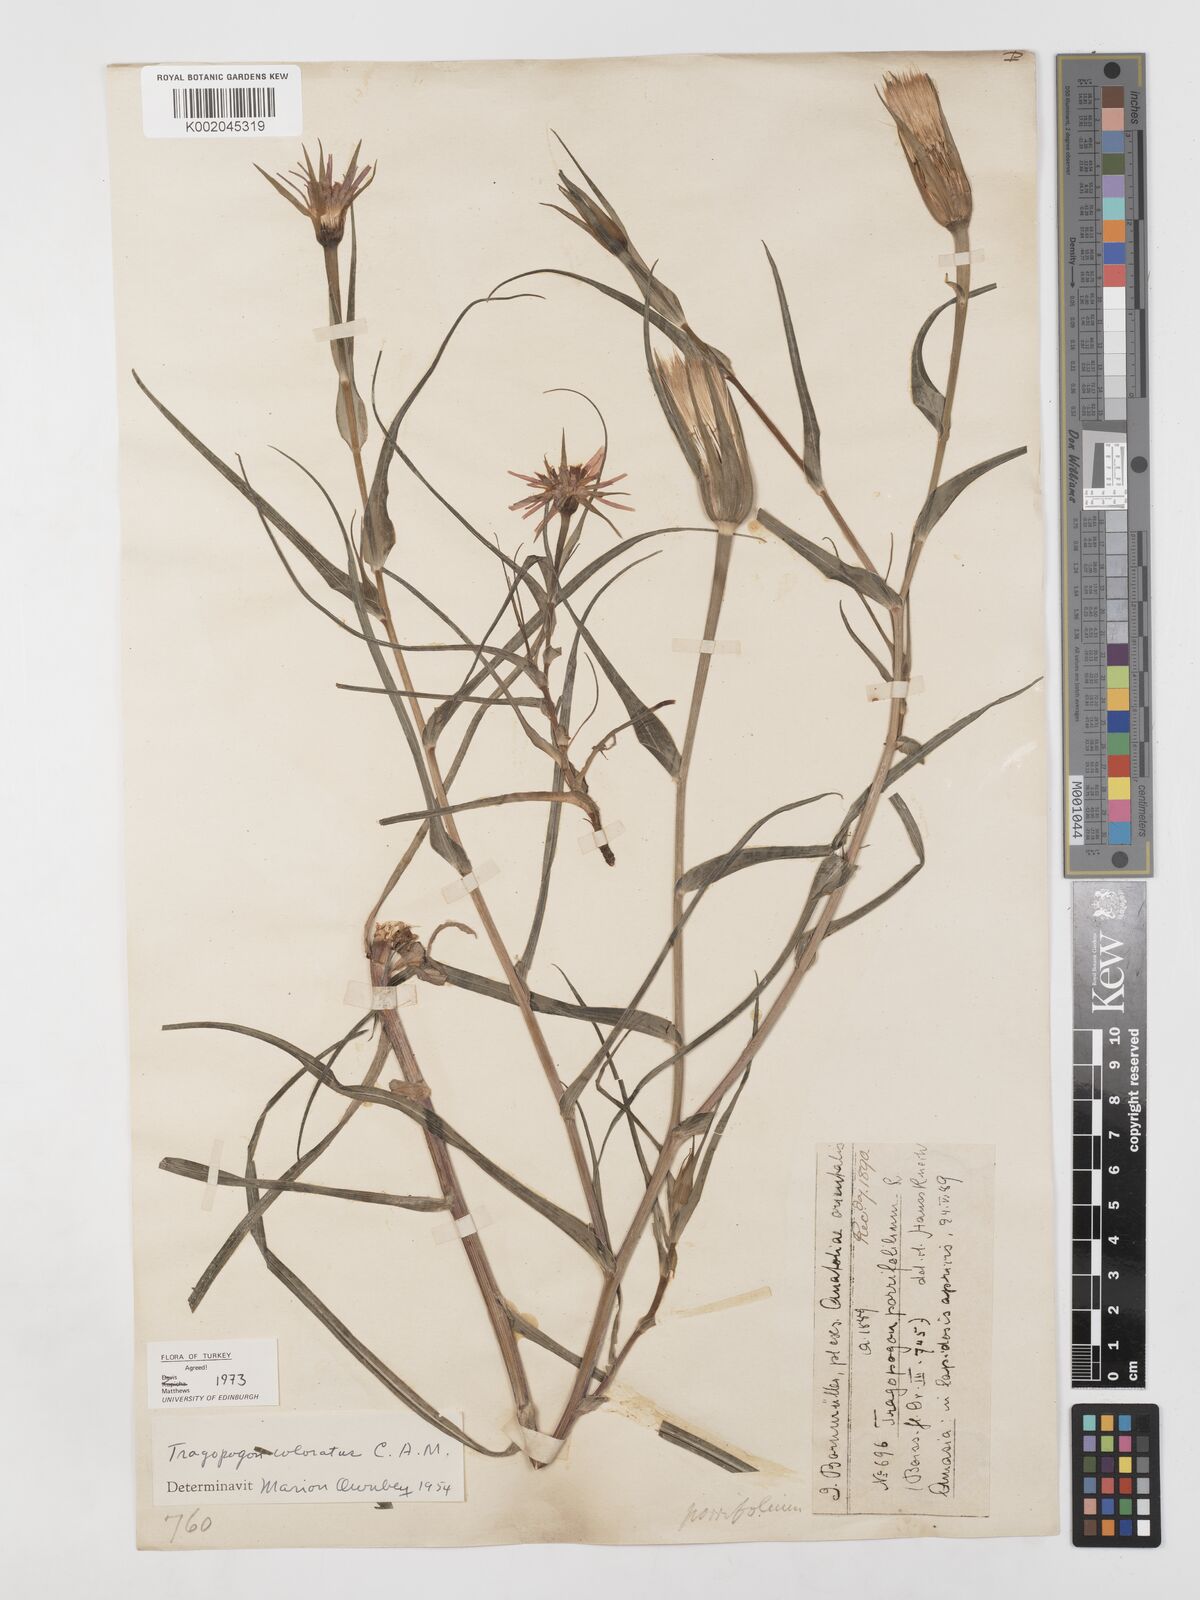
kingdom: Plantae
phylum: Tracheophyta
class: Magnoliopsida
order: Asterales
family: Asteraceae
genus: Tragopogon
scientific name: Tragopogon coloratus
